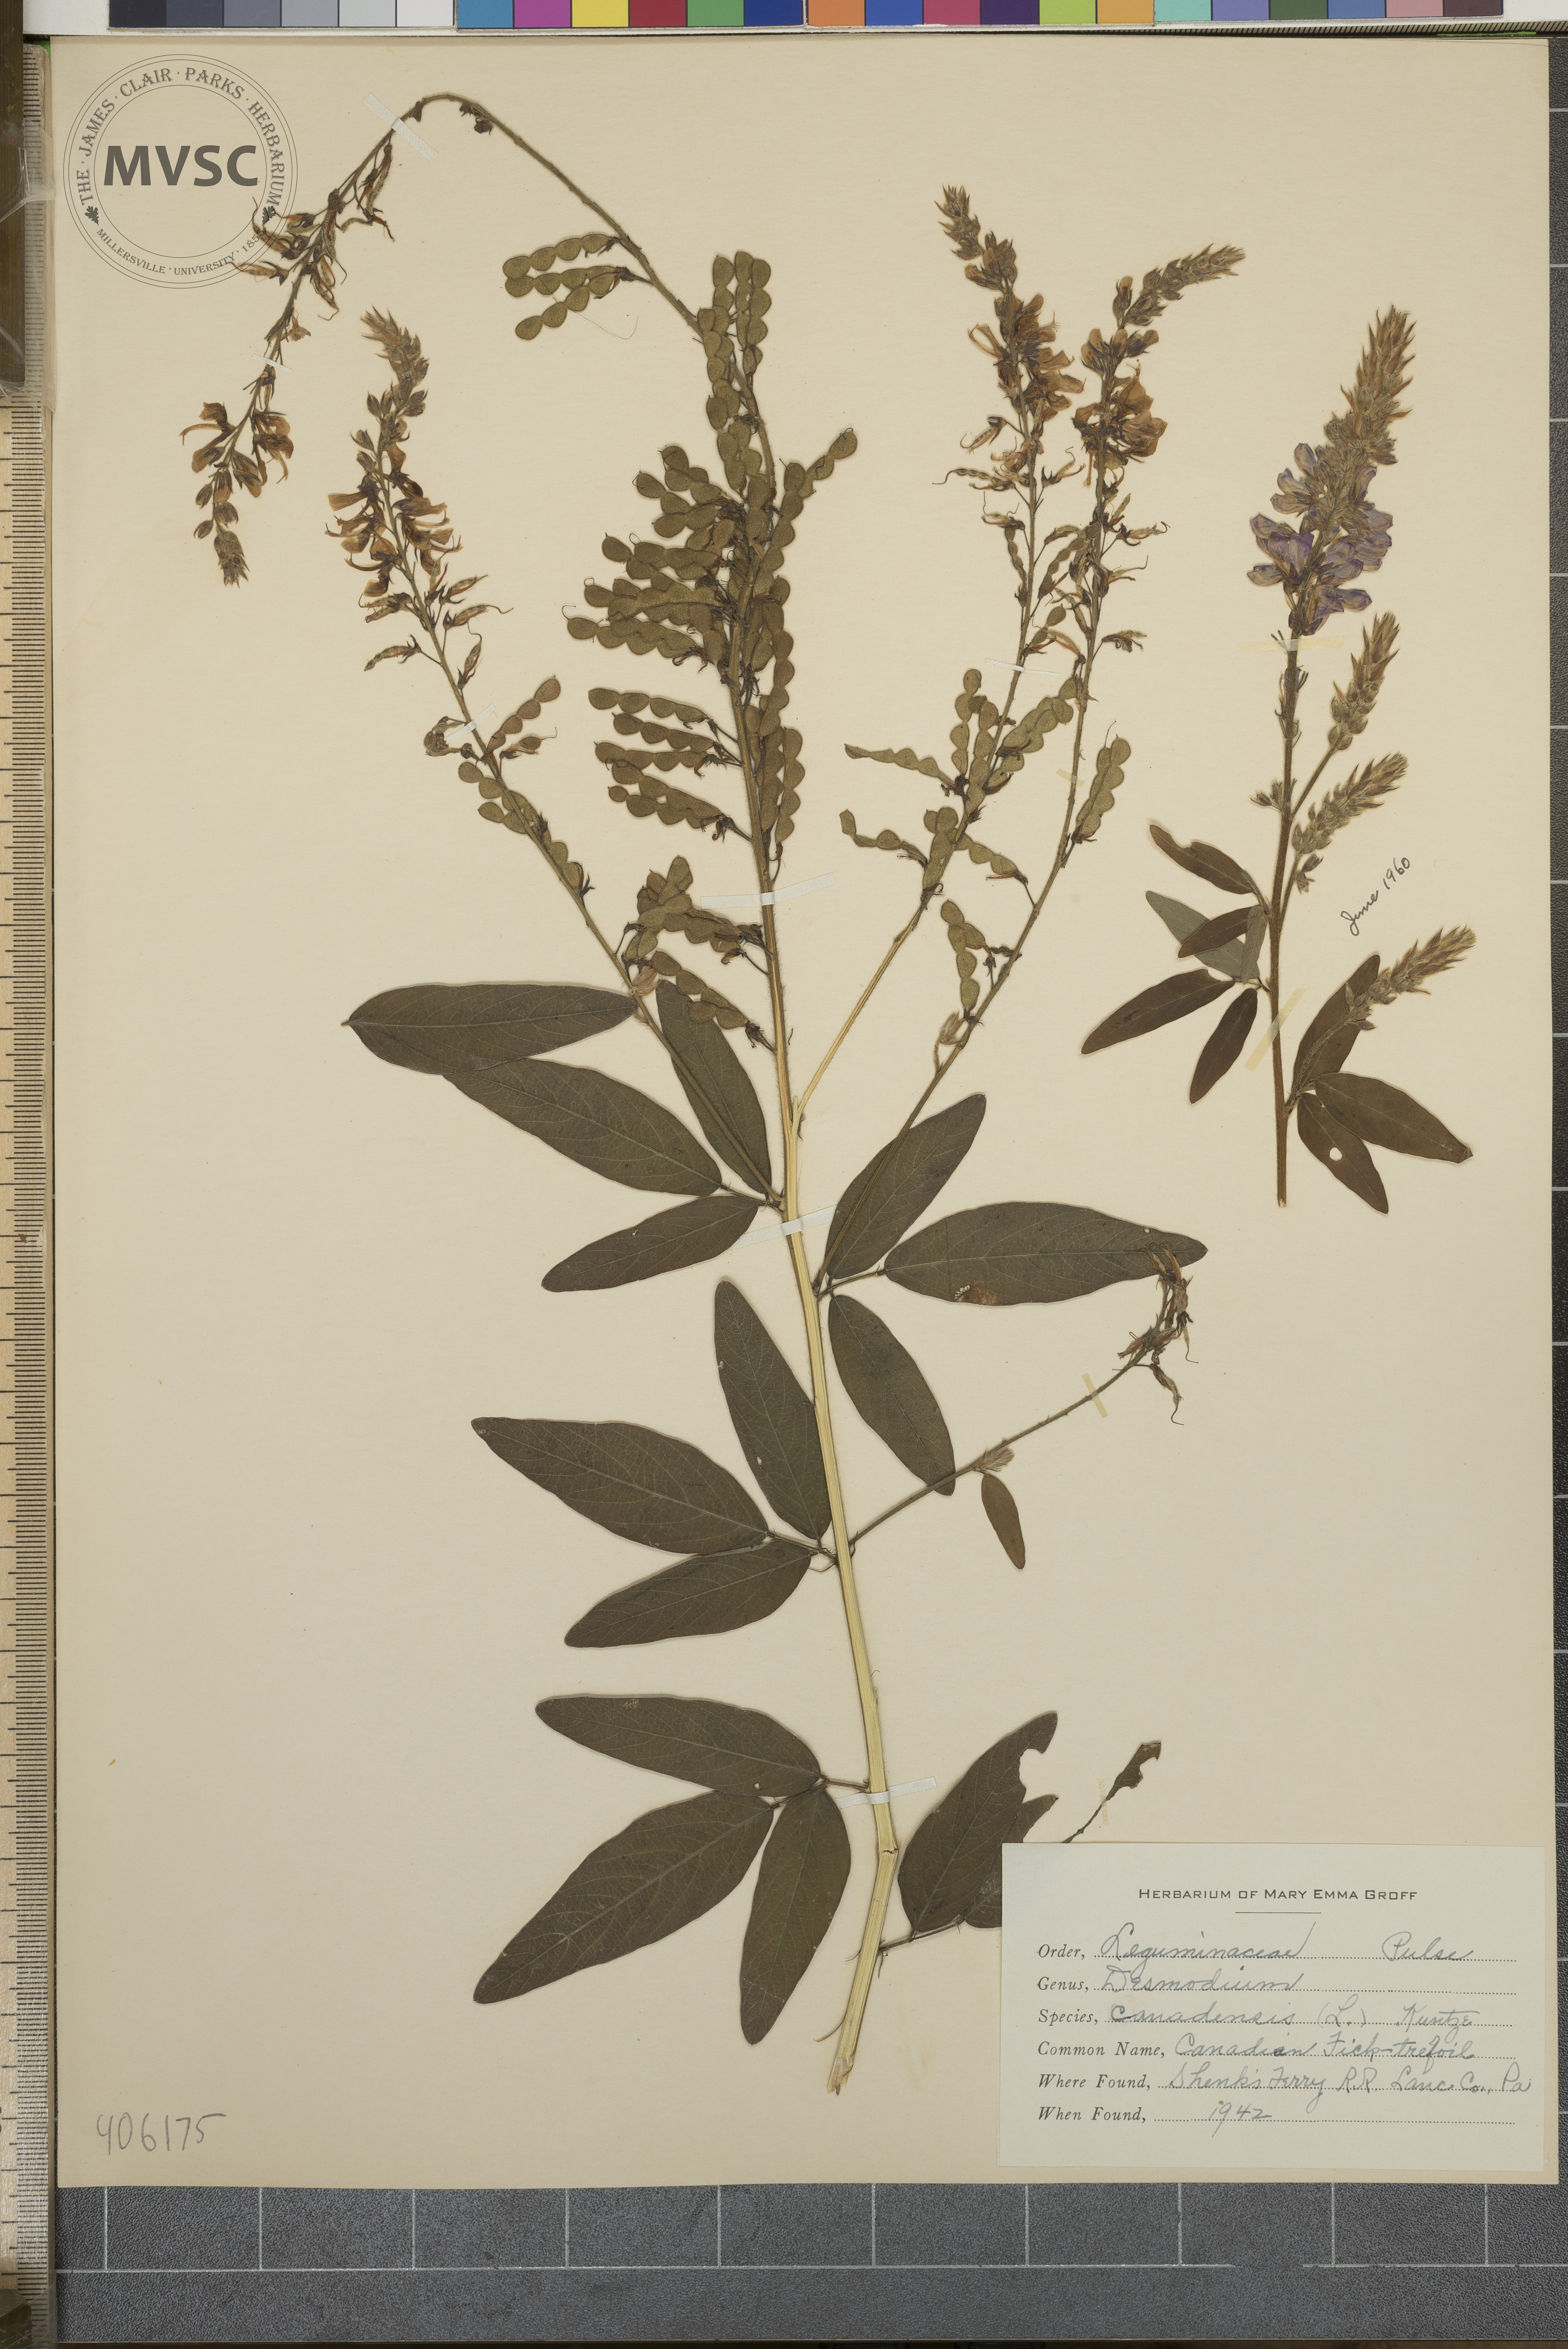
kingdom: Plantae
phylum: Tracheophyta
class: Magnoliopsida
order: Fabales
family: Fabaceae
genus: Desmodium
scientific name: Desmodium canadense
